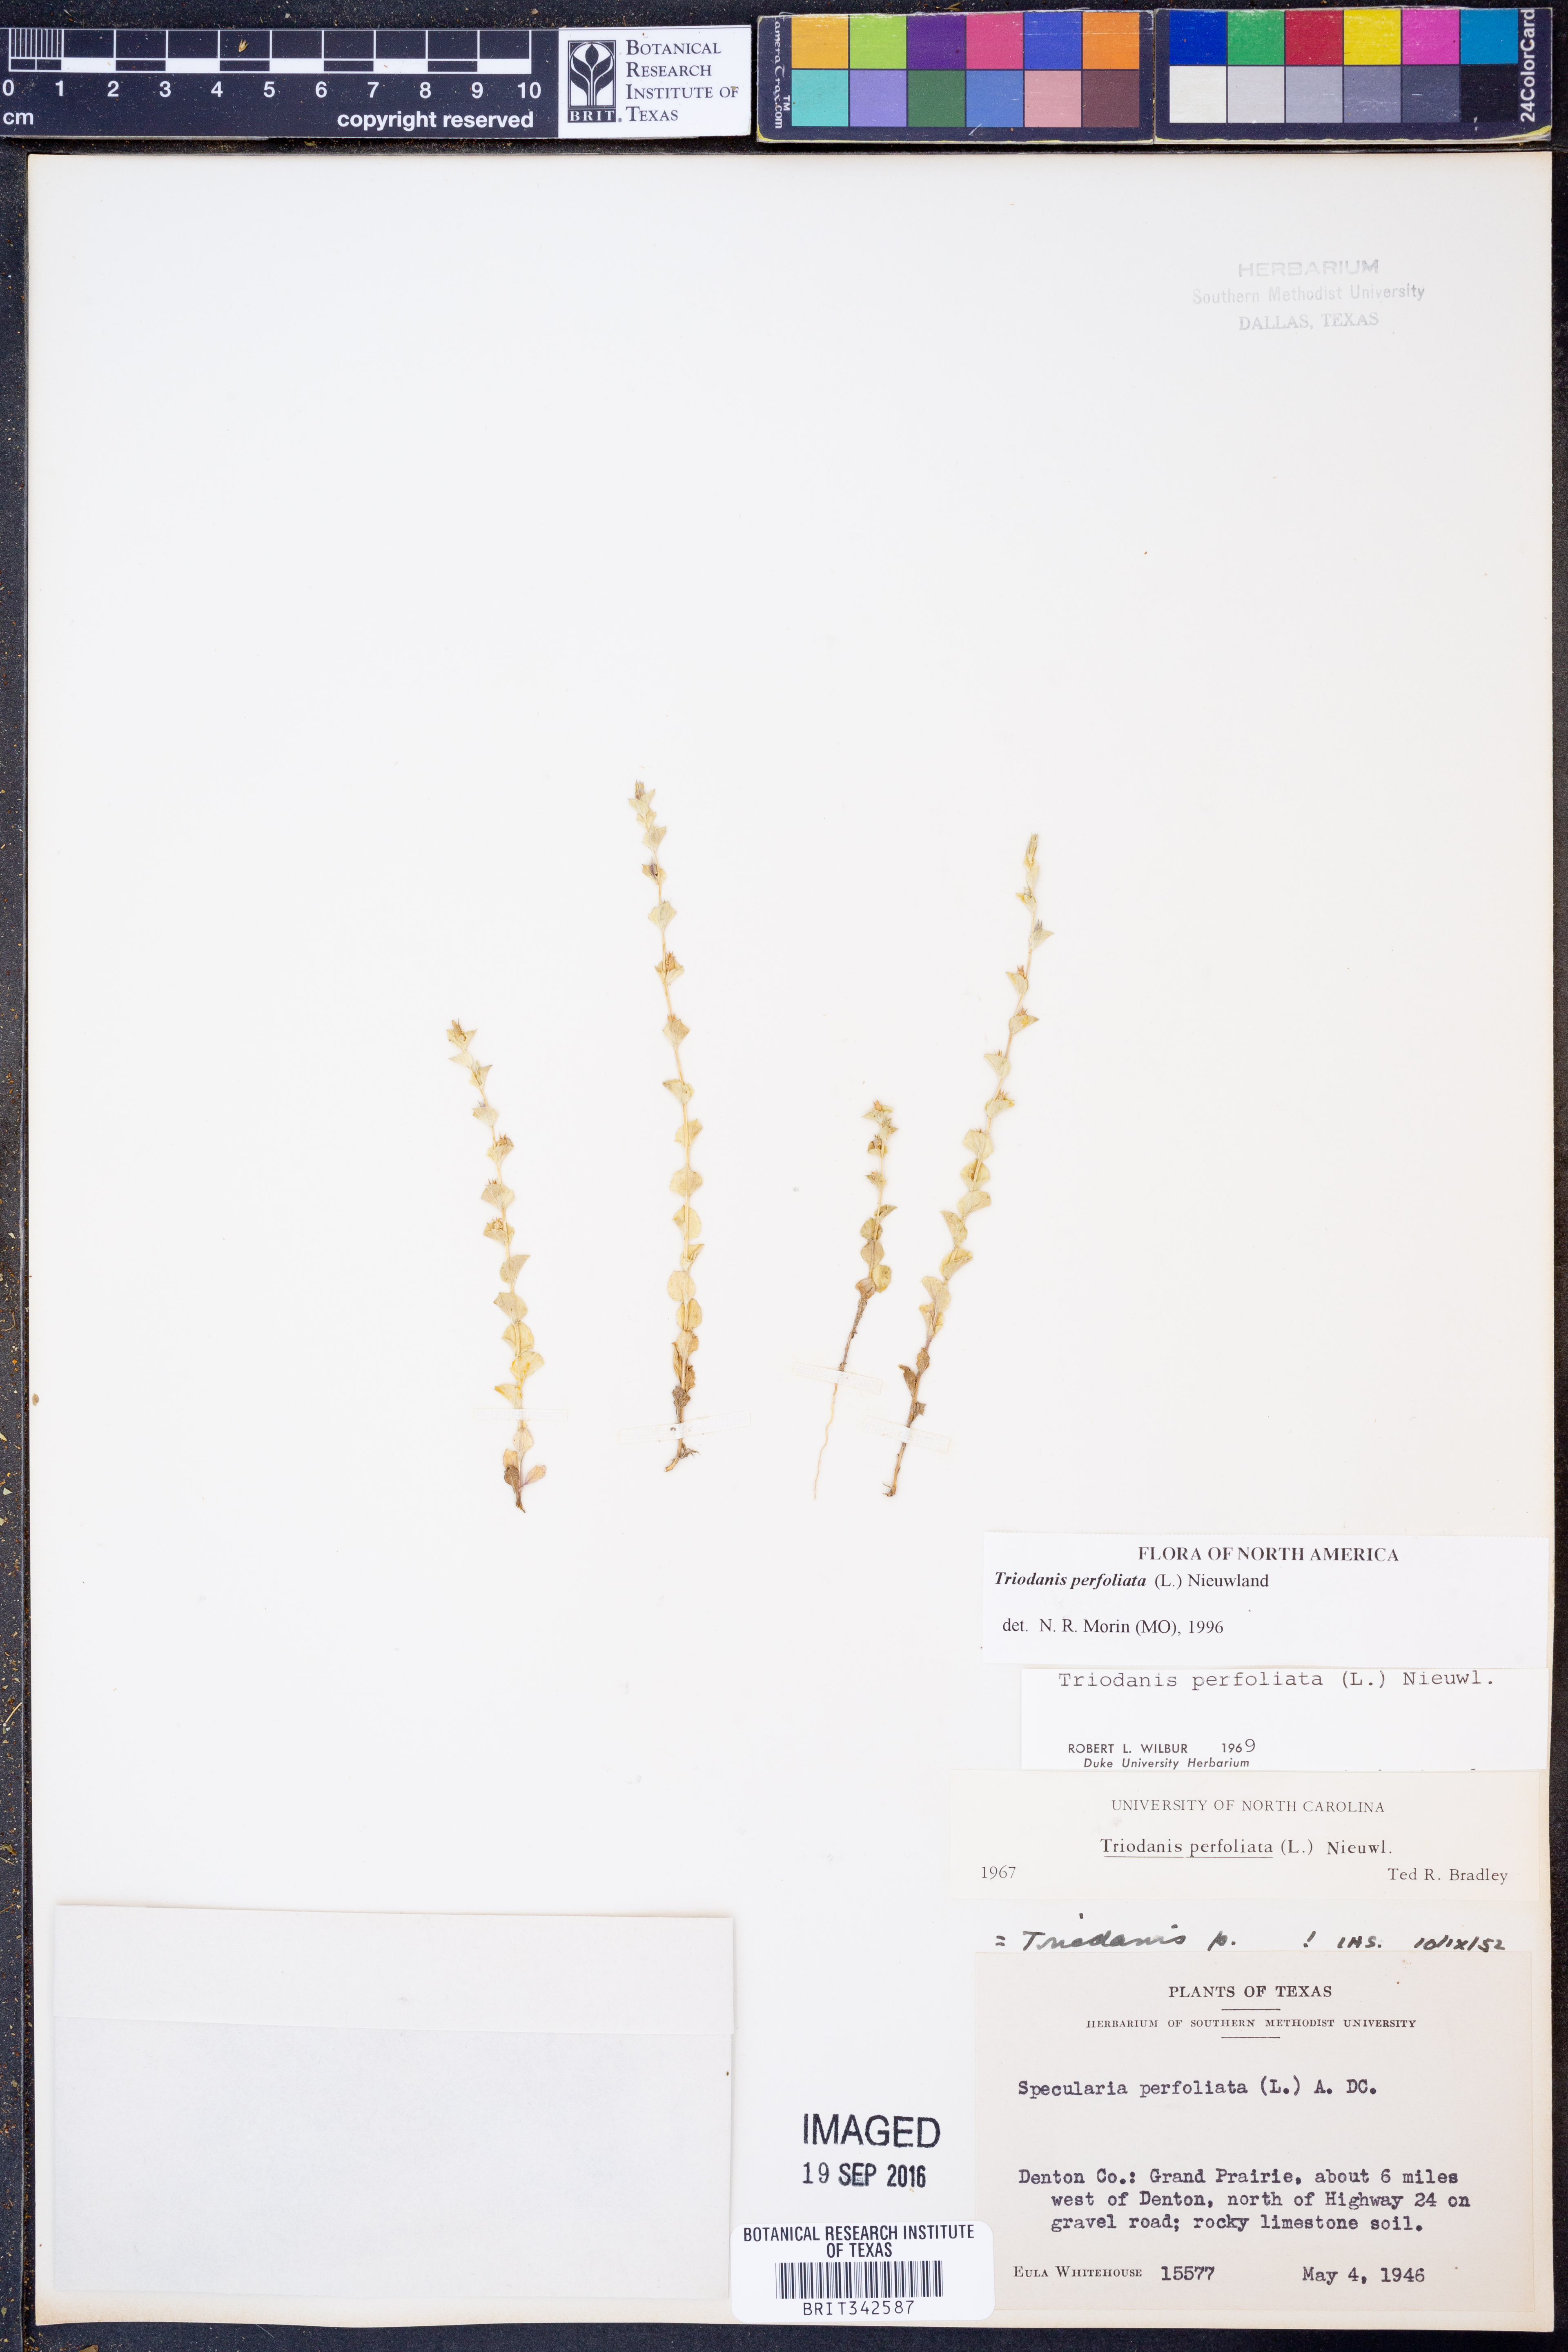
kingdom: Plantae
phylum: Tracheophyta
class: Magnoliopsida
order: Asterales
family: Campanulaceae
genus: Triodanis
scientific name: Triodanis perfoliata
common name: Clasping venus' looking-glass
